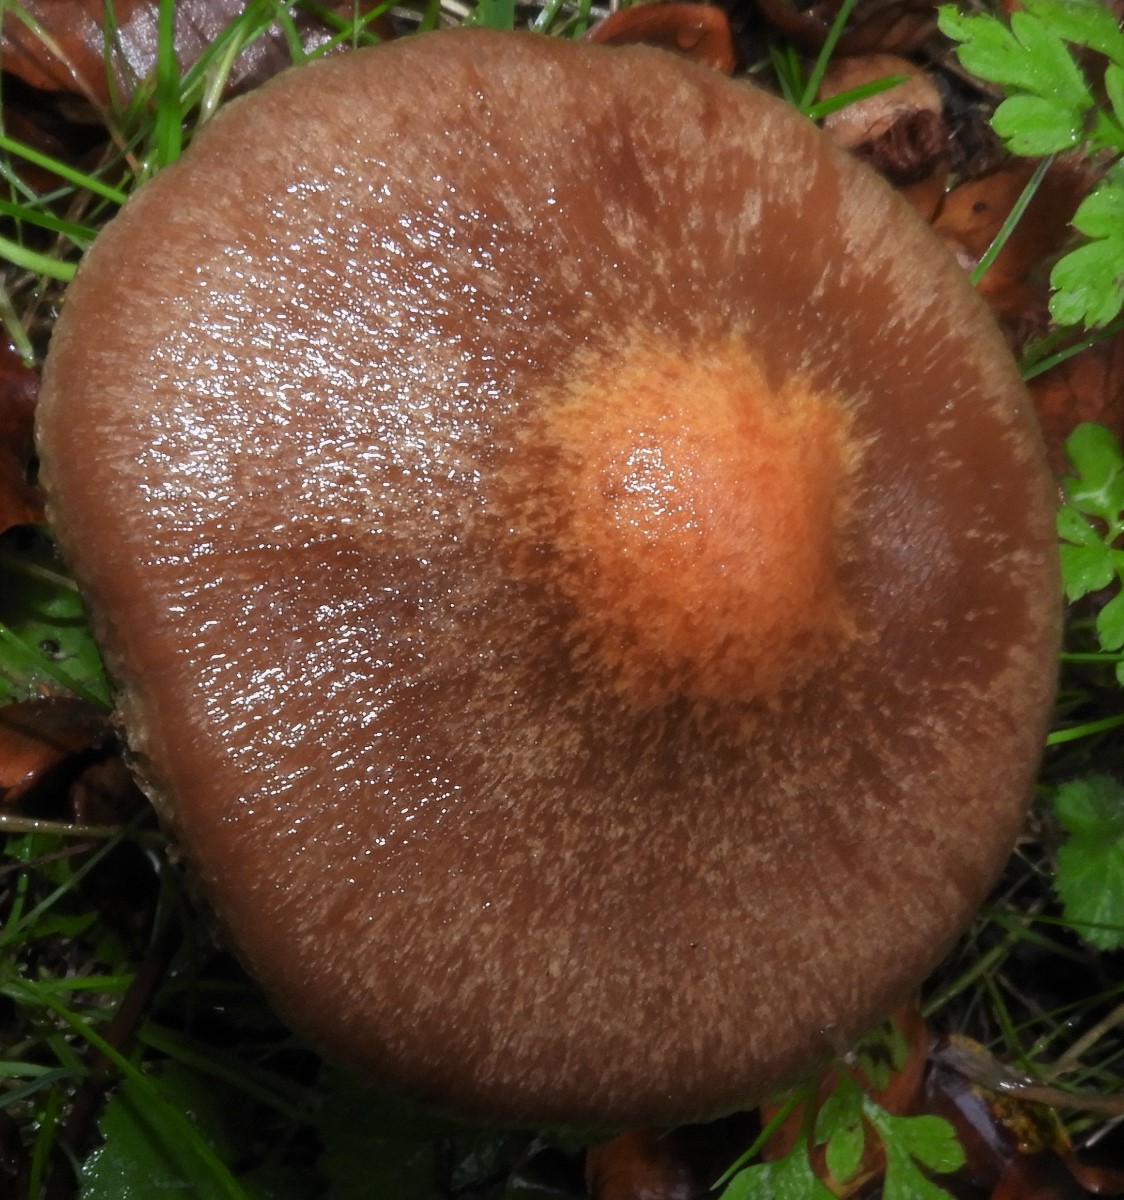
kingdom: Fungi
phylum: Basidiomycota
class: Agaricomycetes
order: Agaricales
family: Psathyrellaceae
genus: Lacrymaria
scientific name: Lacrymaria lacrymabunda
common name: grædende mørkhat
